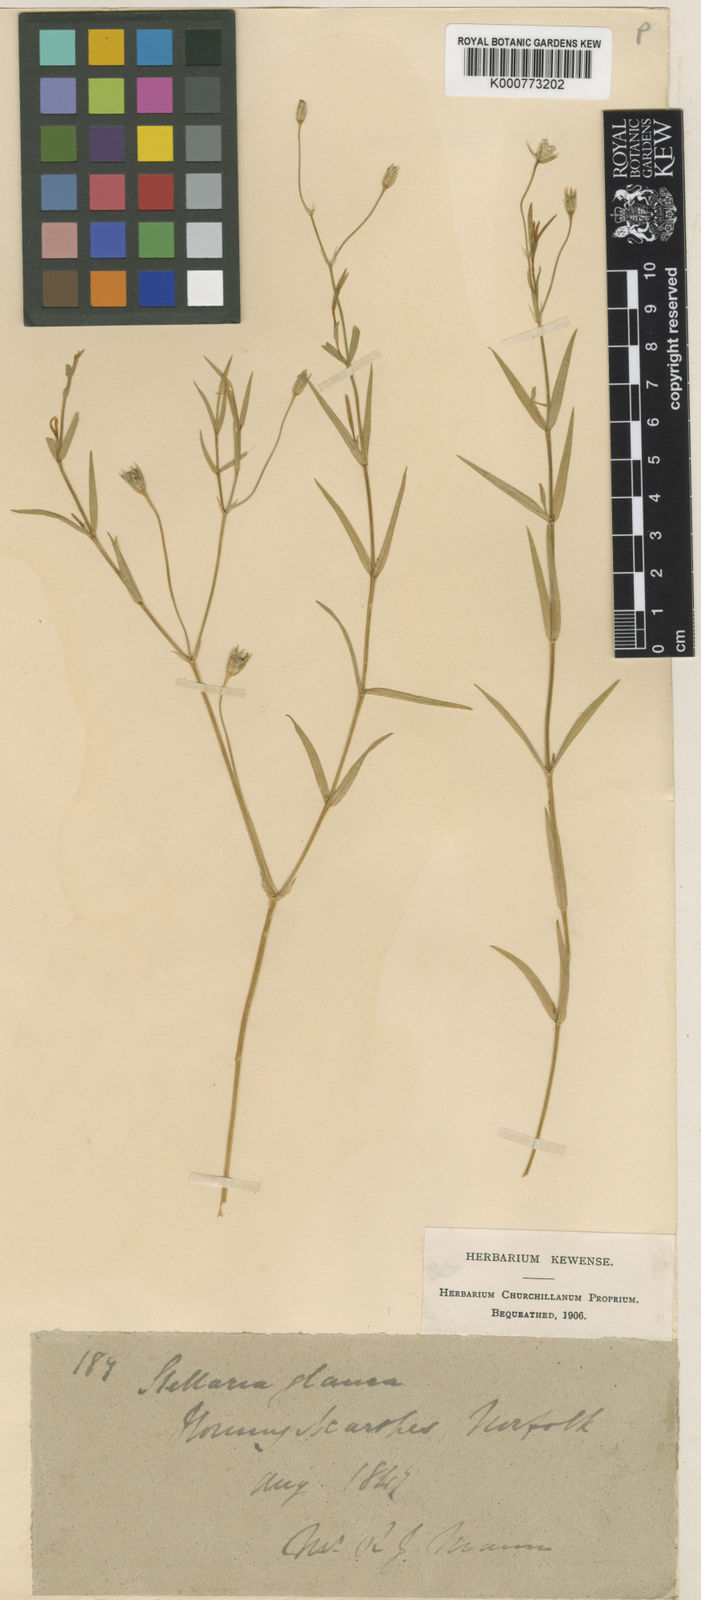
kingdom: Plantae
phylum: Tracheophyta
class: Magnoliopsida
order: Caryophyllales
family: Caryophyllaceae
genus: Stellaria
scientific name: Stellaria
